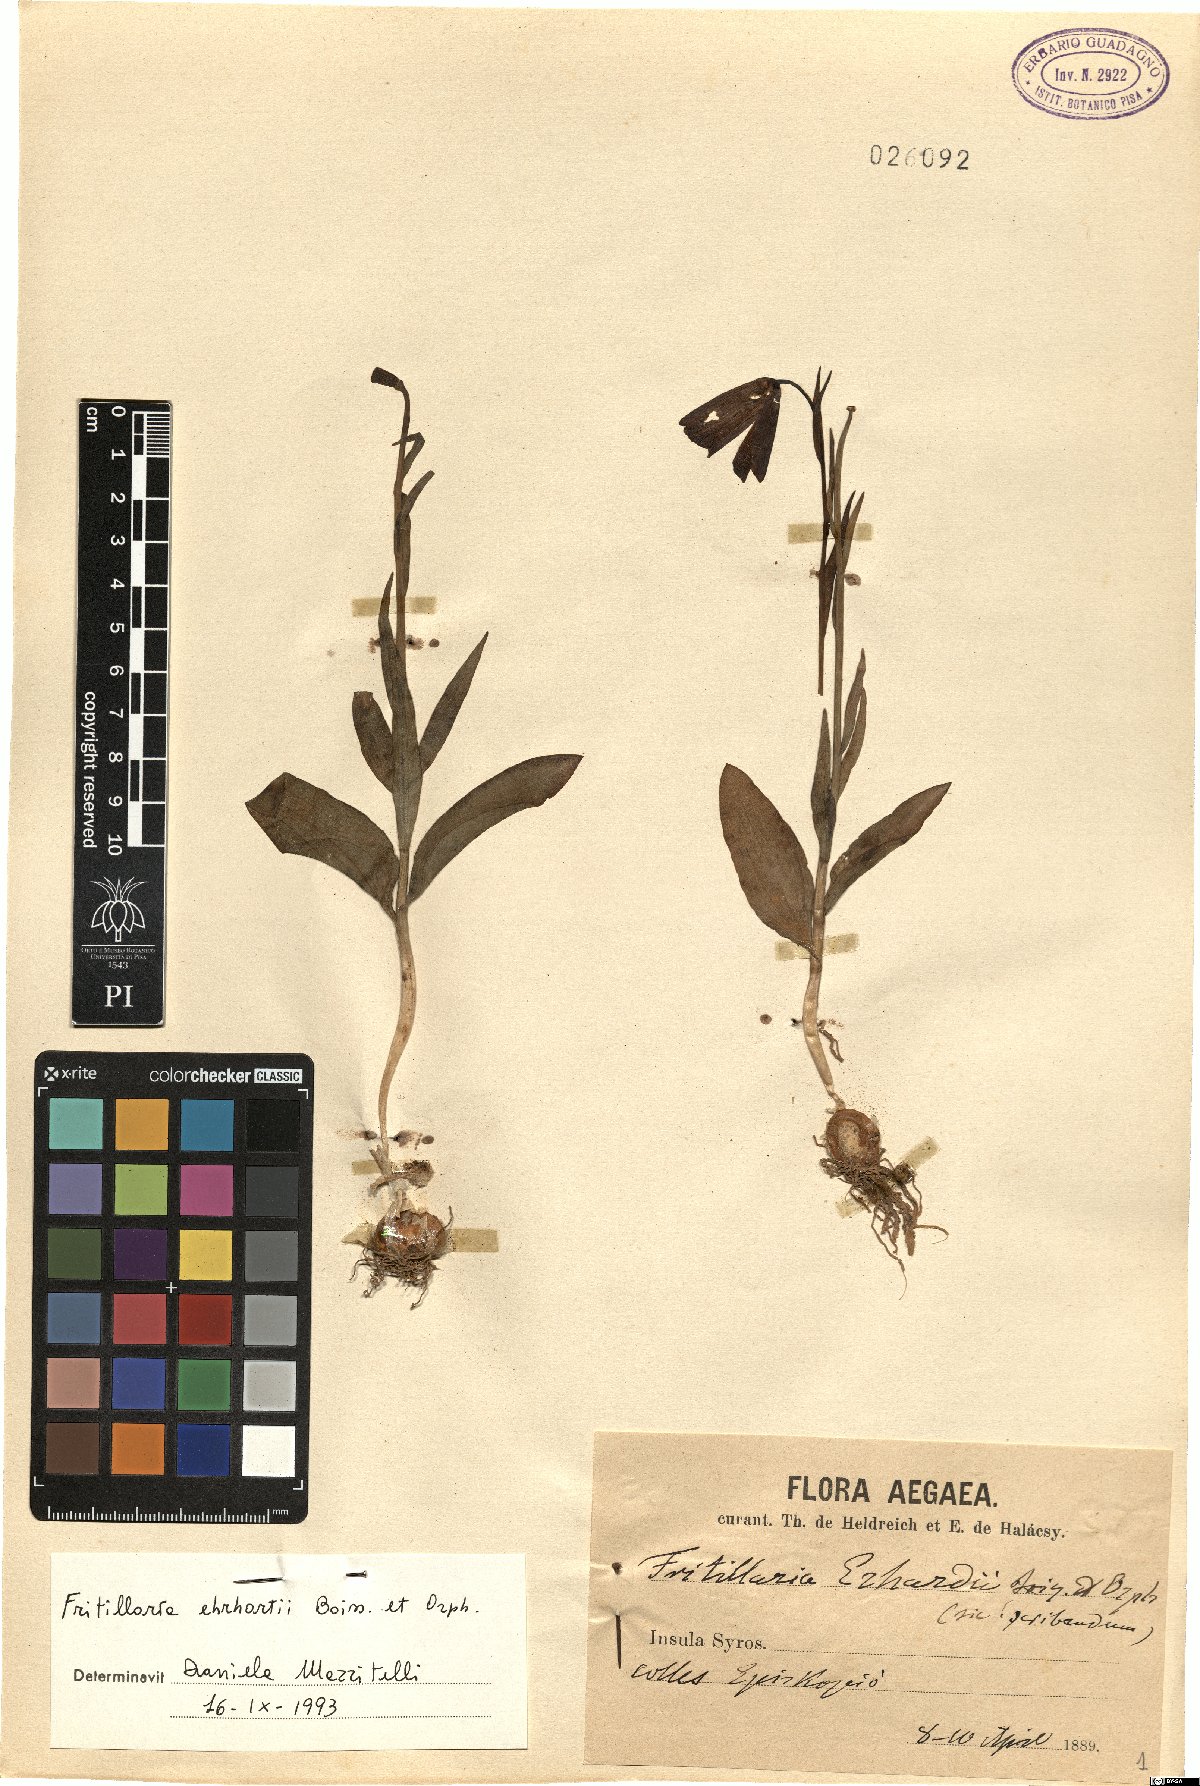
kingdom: Plantae
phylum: Tracheophyta
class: Liliopsida
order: Liliales
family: Liliaceae
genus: Fritillaria
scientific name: Fritillaria ehrhartii
